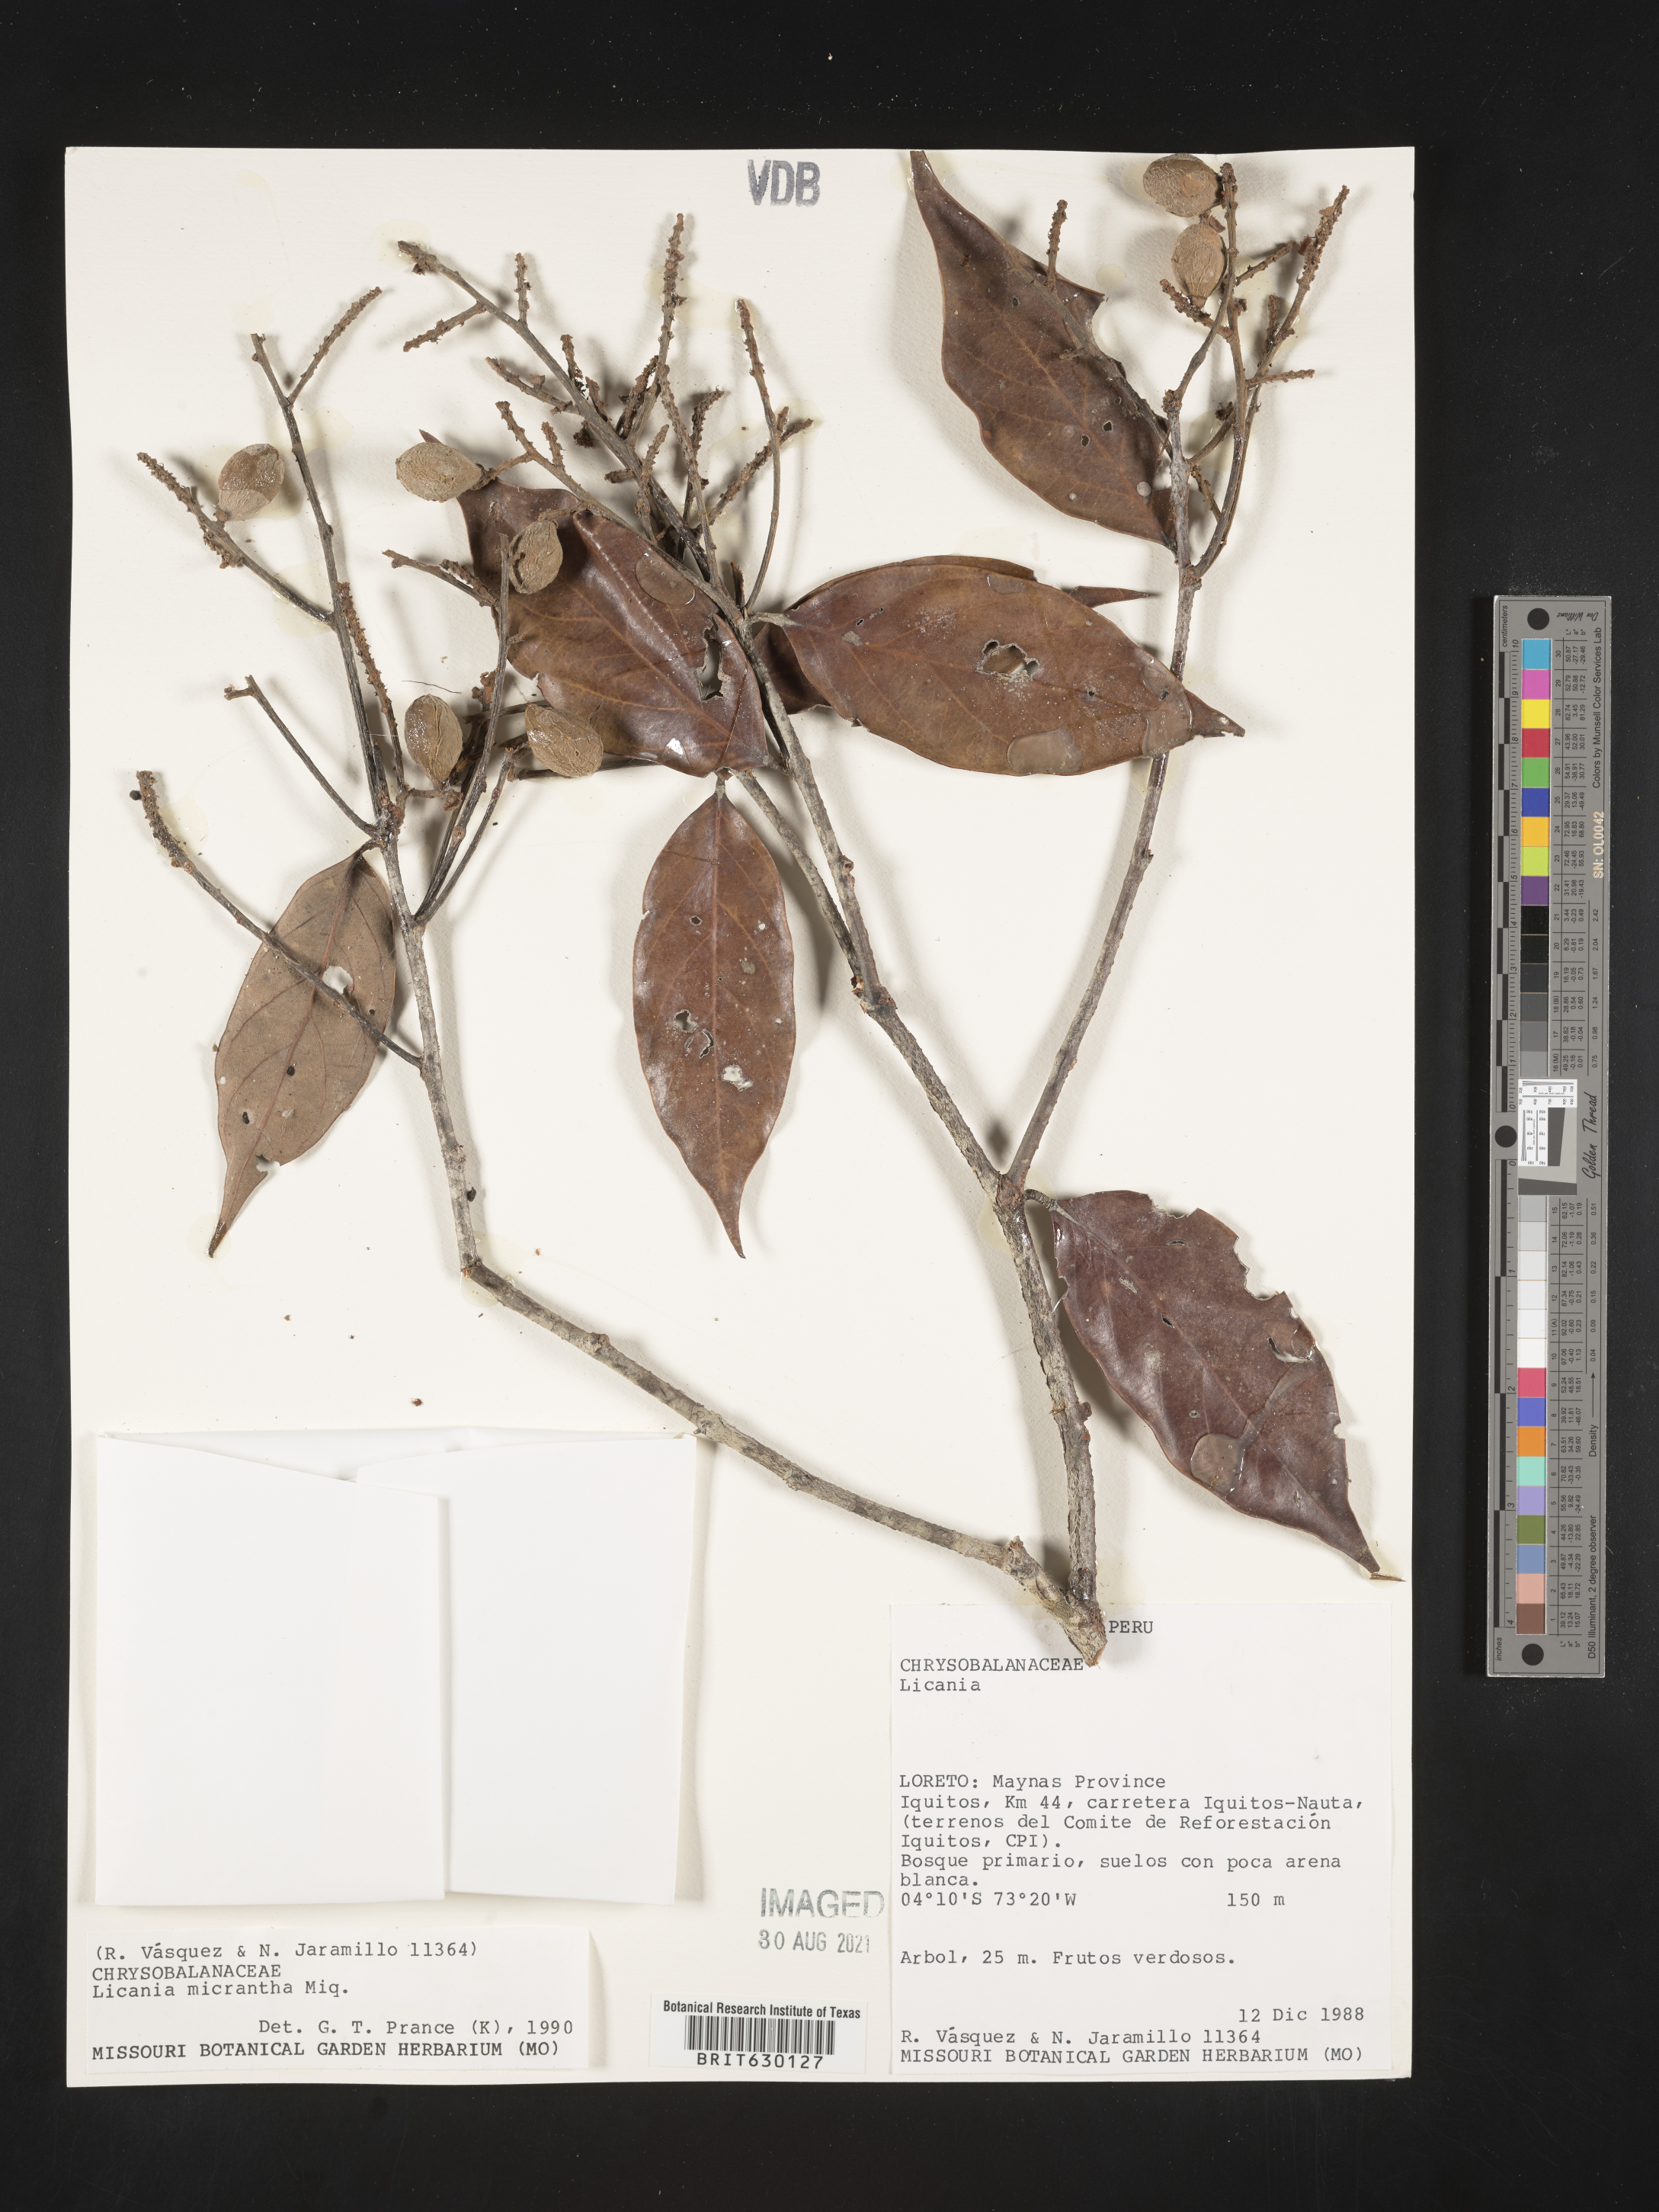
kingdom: Plantae
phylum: Tracheophyta
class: Magnoliopsida
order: Malpighiales
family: Chrysobalanaceae
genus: Licania
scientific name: Licania micrantha
